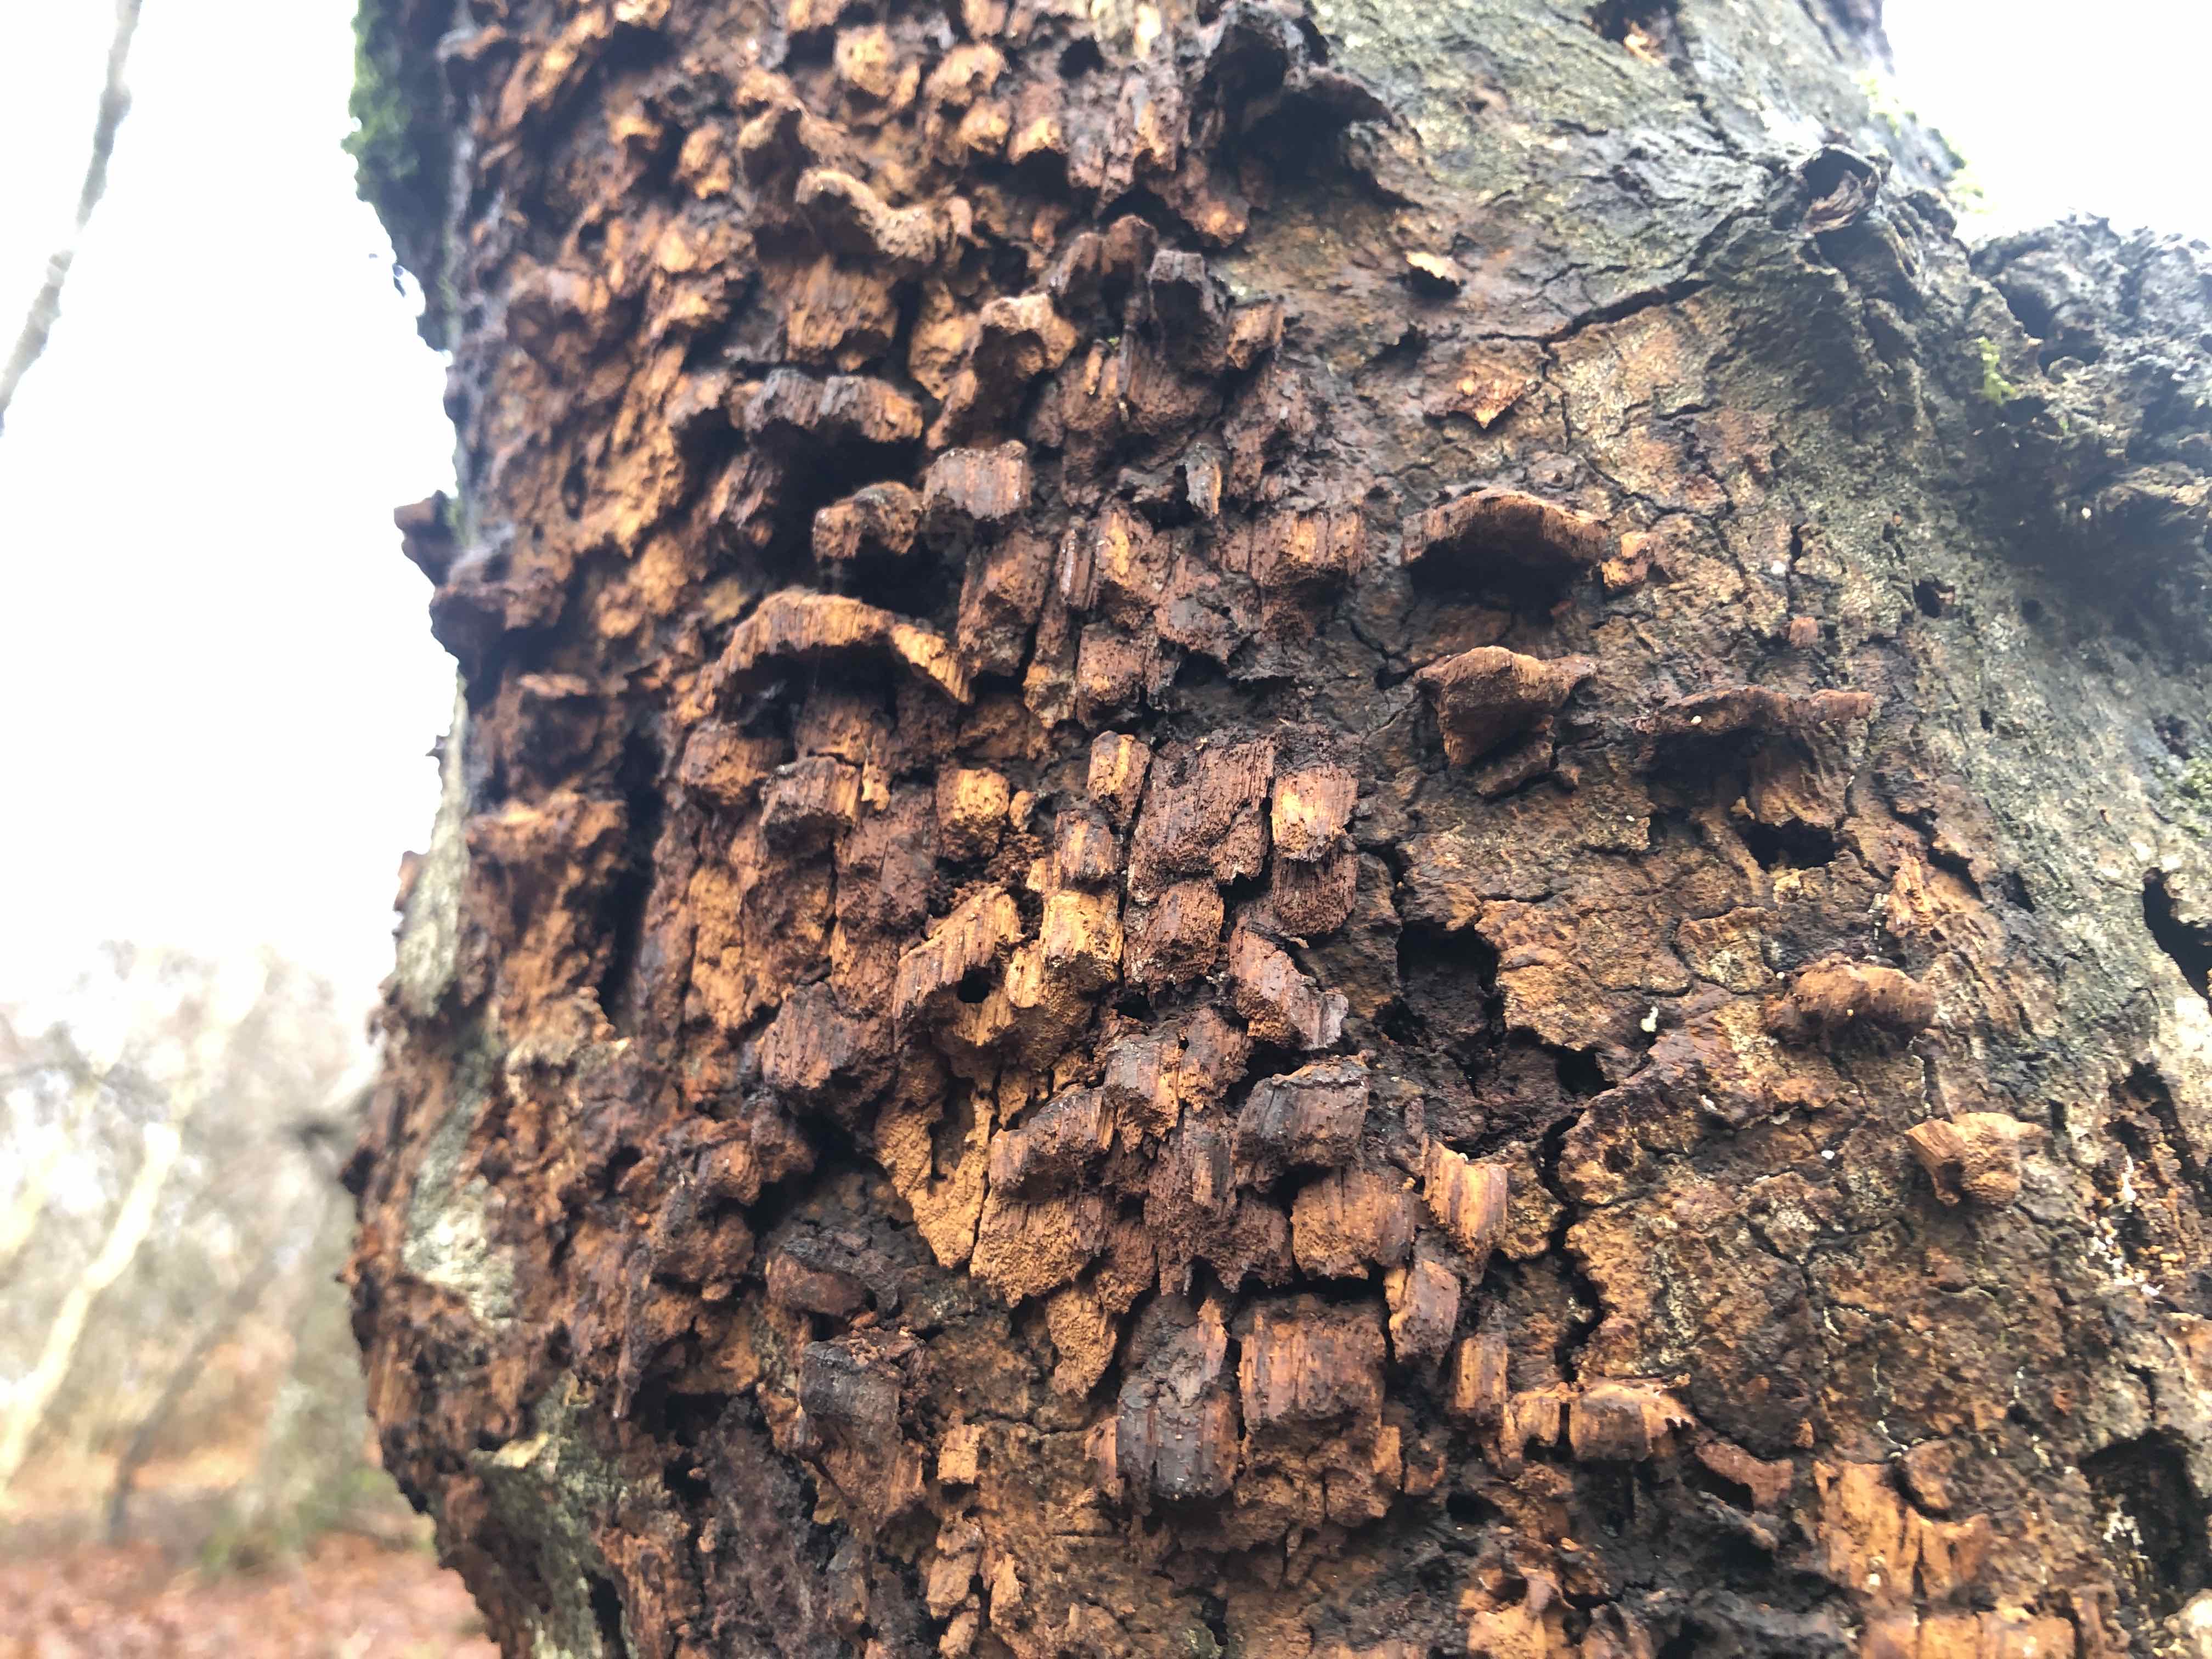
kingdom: Fungi
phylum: Basidiomycota
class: Agaricomycetes
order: Hymenochaetales
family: Hymenochaetaceae
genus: Mensularia
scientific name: Mensularia nodulosa
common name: bøge-spejlporesvamp
